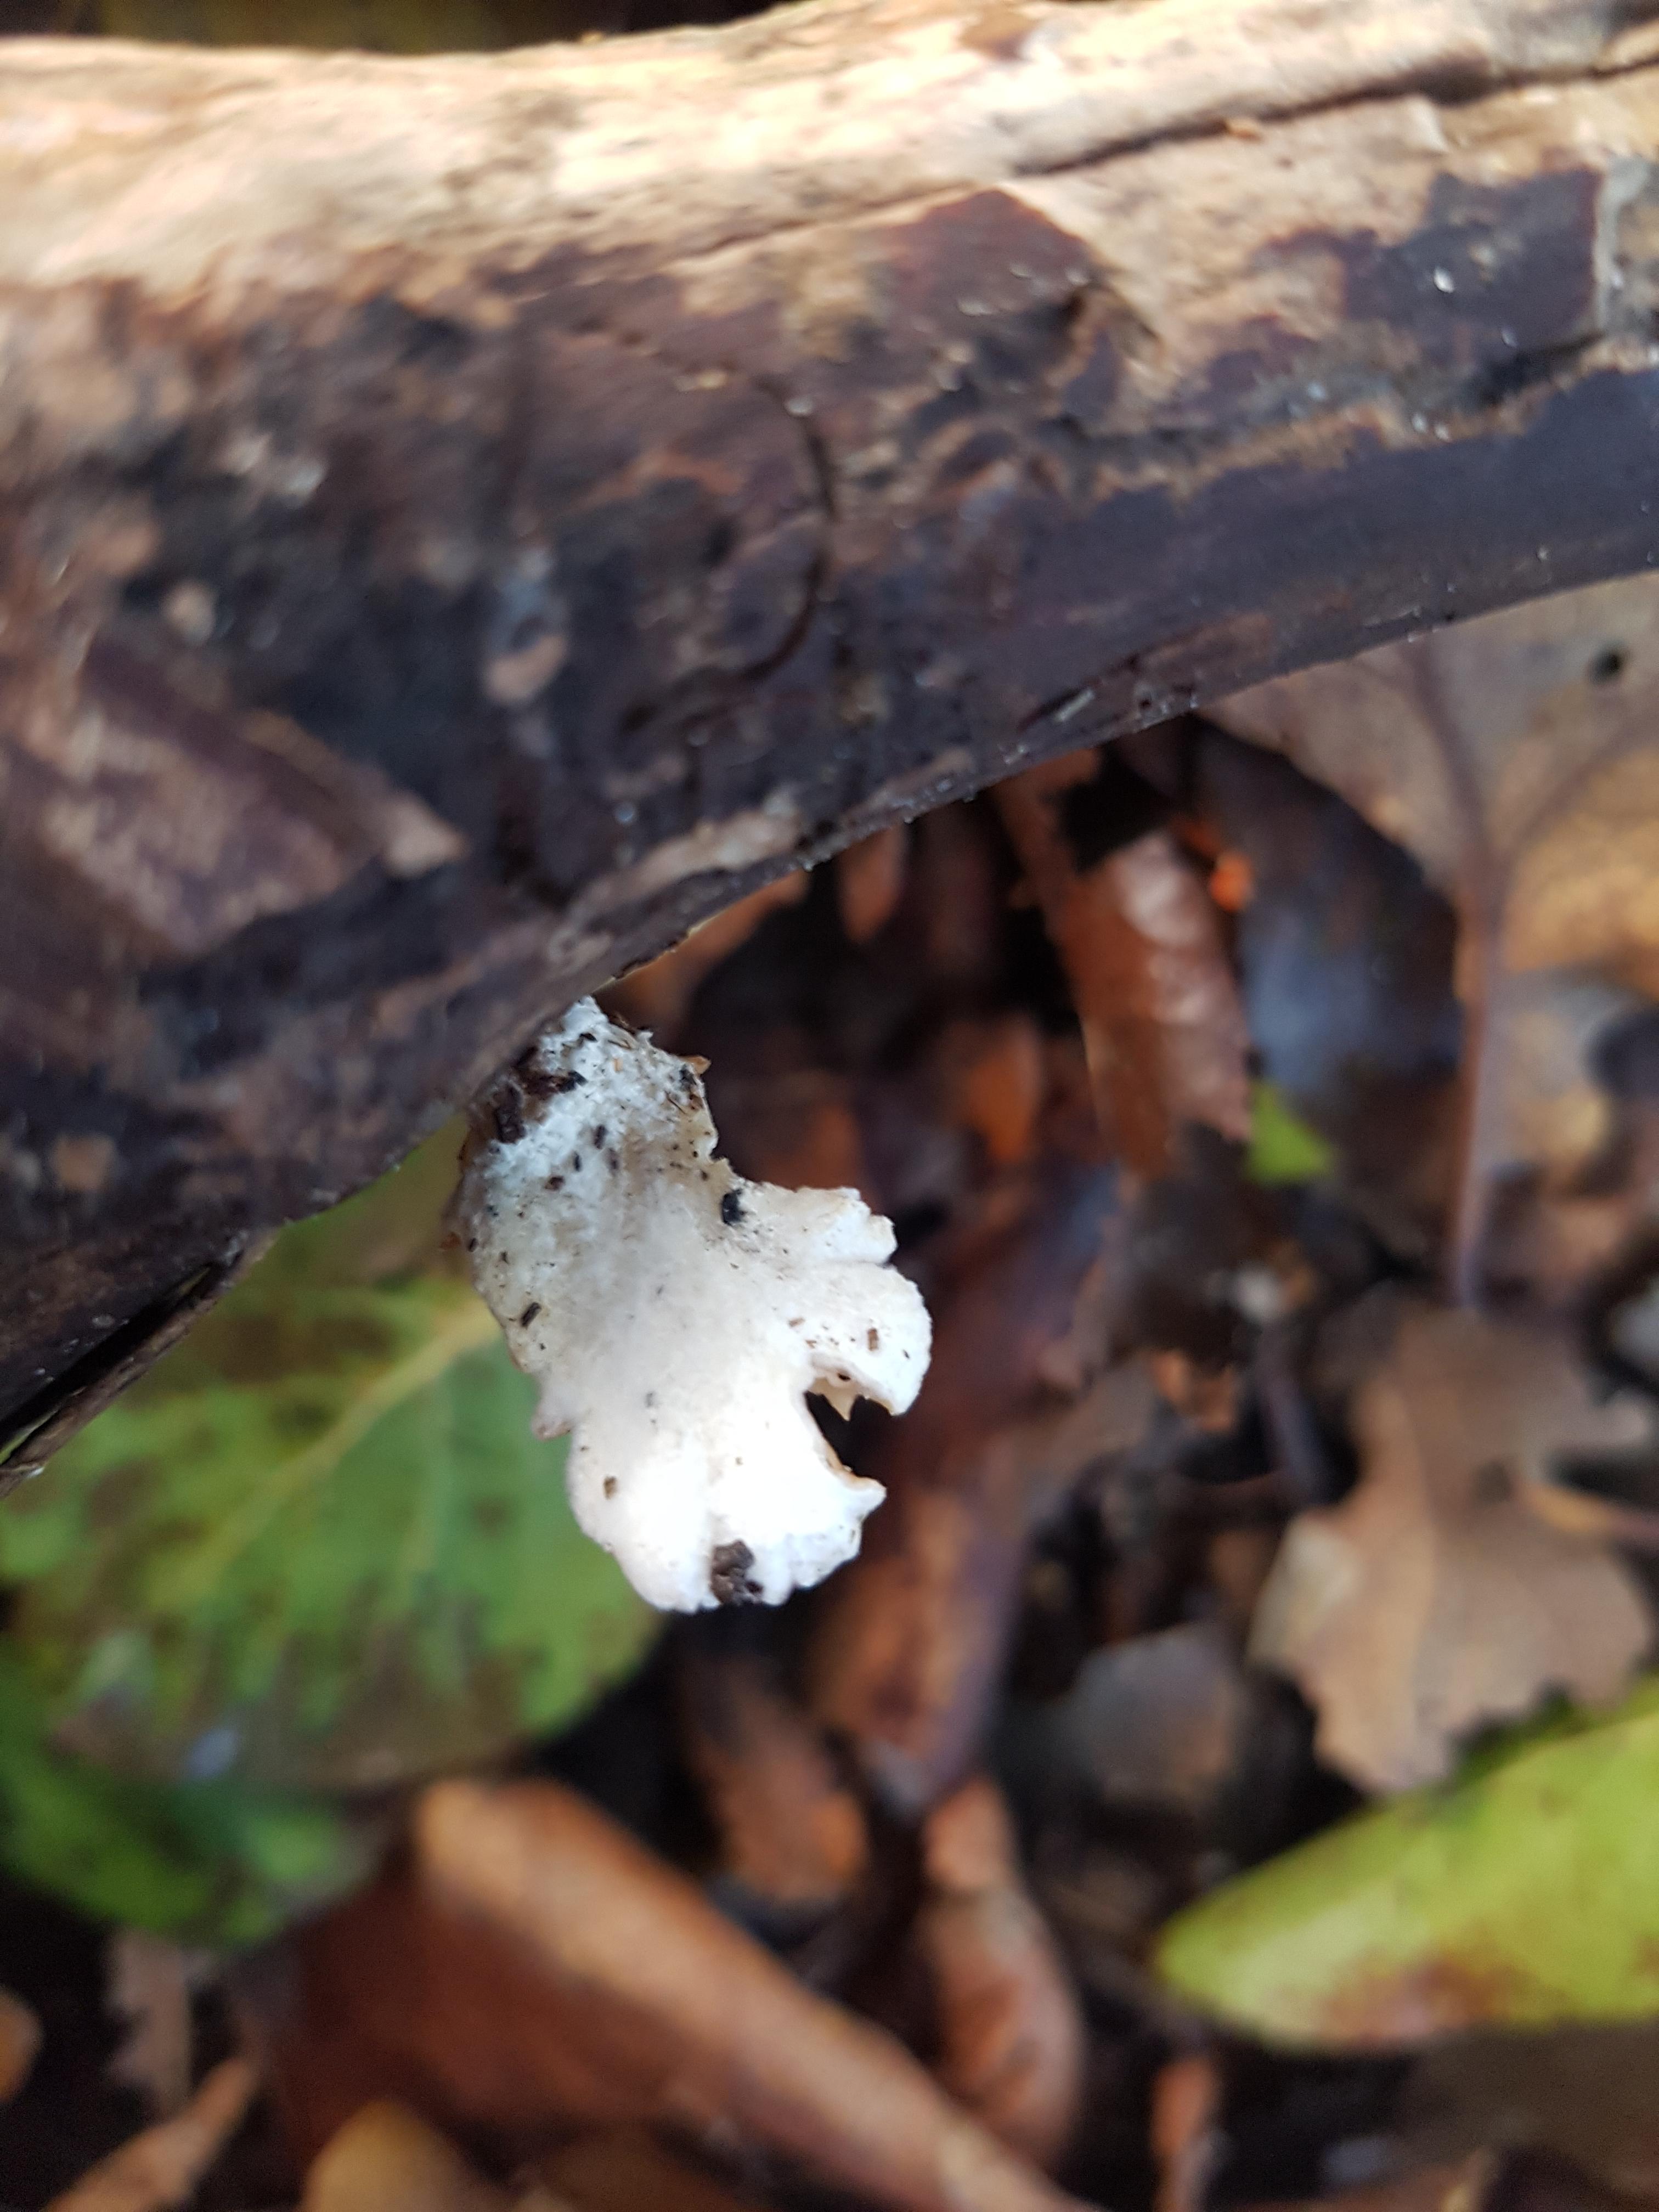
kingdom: Fungi
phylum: Basidiomycota
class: Agaricomycetes
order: Agaricales
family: Crepidotaceae
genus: Crepidotus
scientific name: Crepidotus
